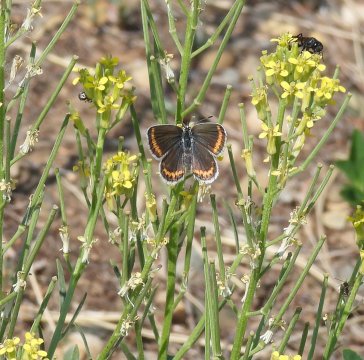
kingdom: Animalia
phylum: Arthropoda
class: Insecta
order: Lepidoptera
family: Lycaenidae
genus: Lycaeides
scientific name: Lycaeides melissa
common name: Melissa Blue
